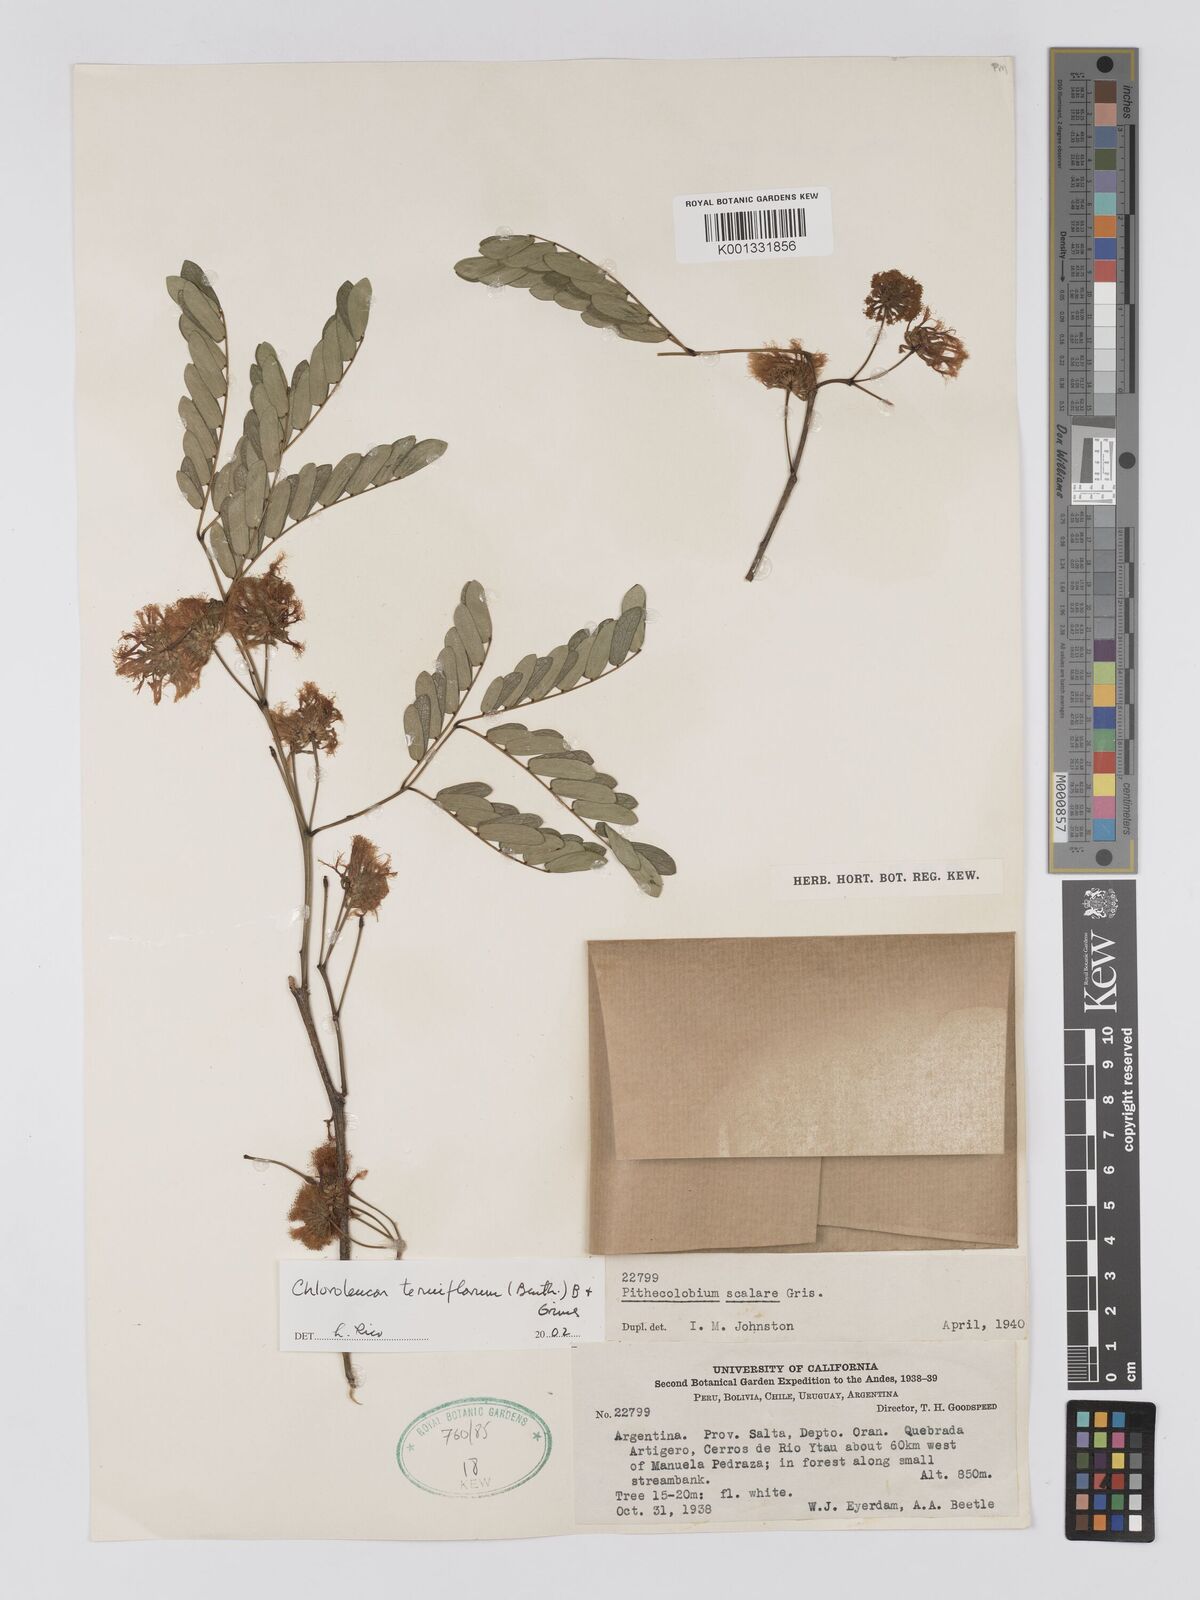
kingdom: Plantae
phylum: Tracheophyta
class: Magnoliopsida
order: Fabales
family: Fabaceae
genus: Chloroleucon
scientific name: Chloroleucon tenuiflorum
